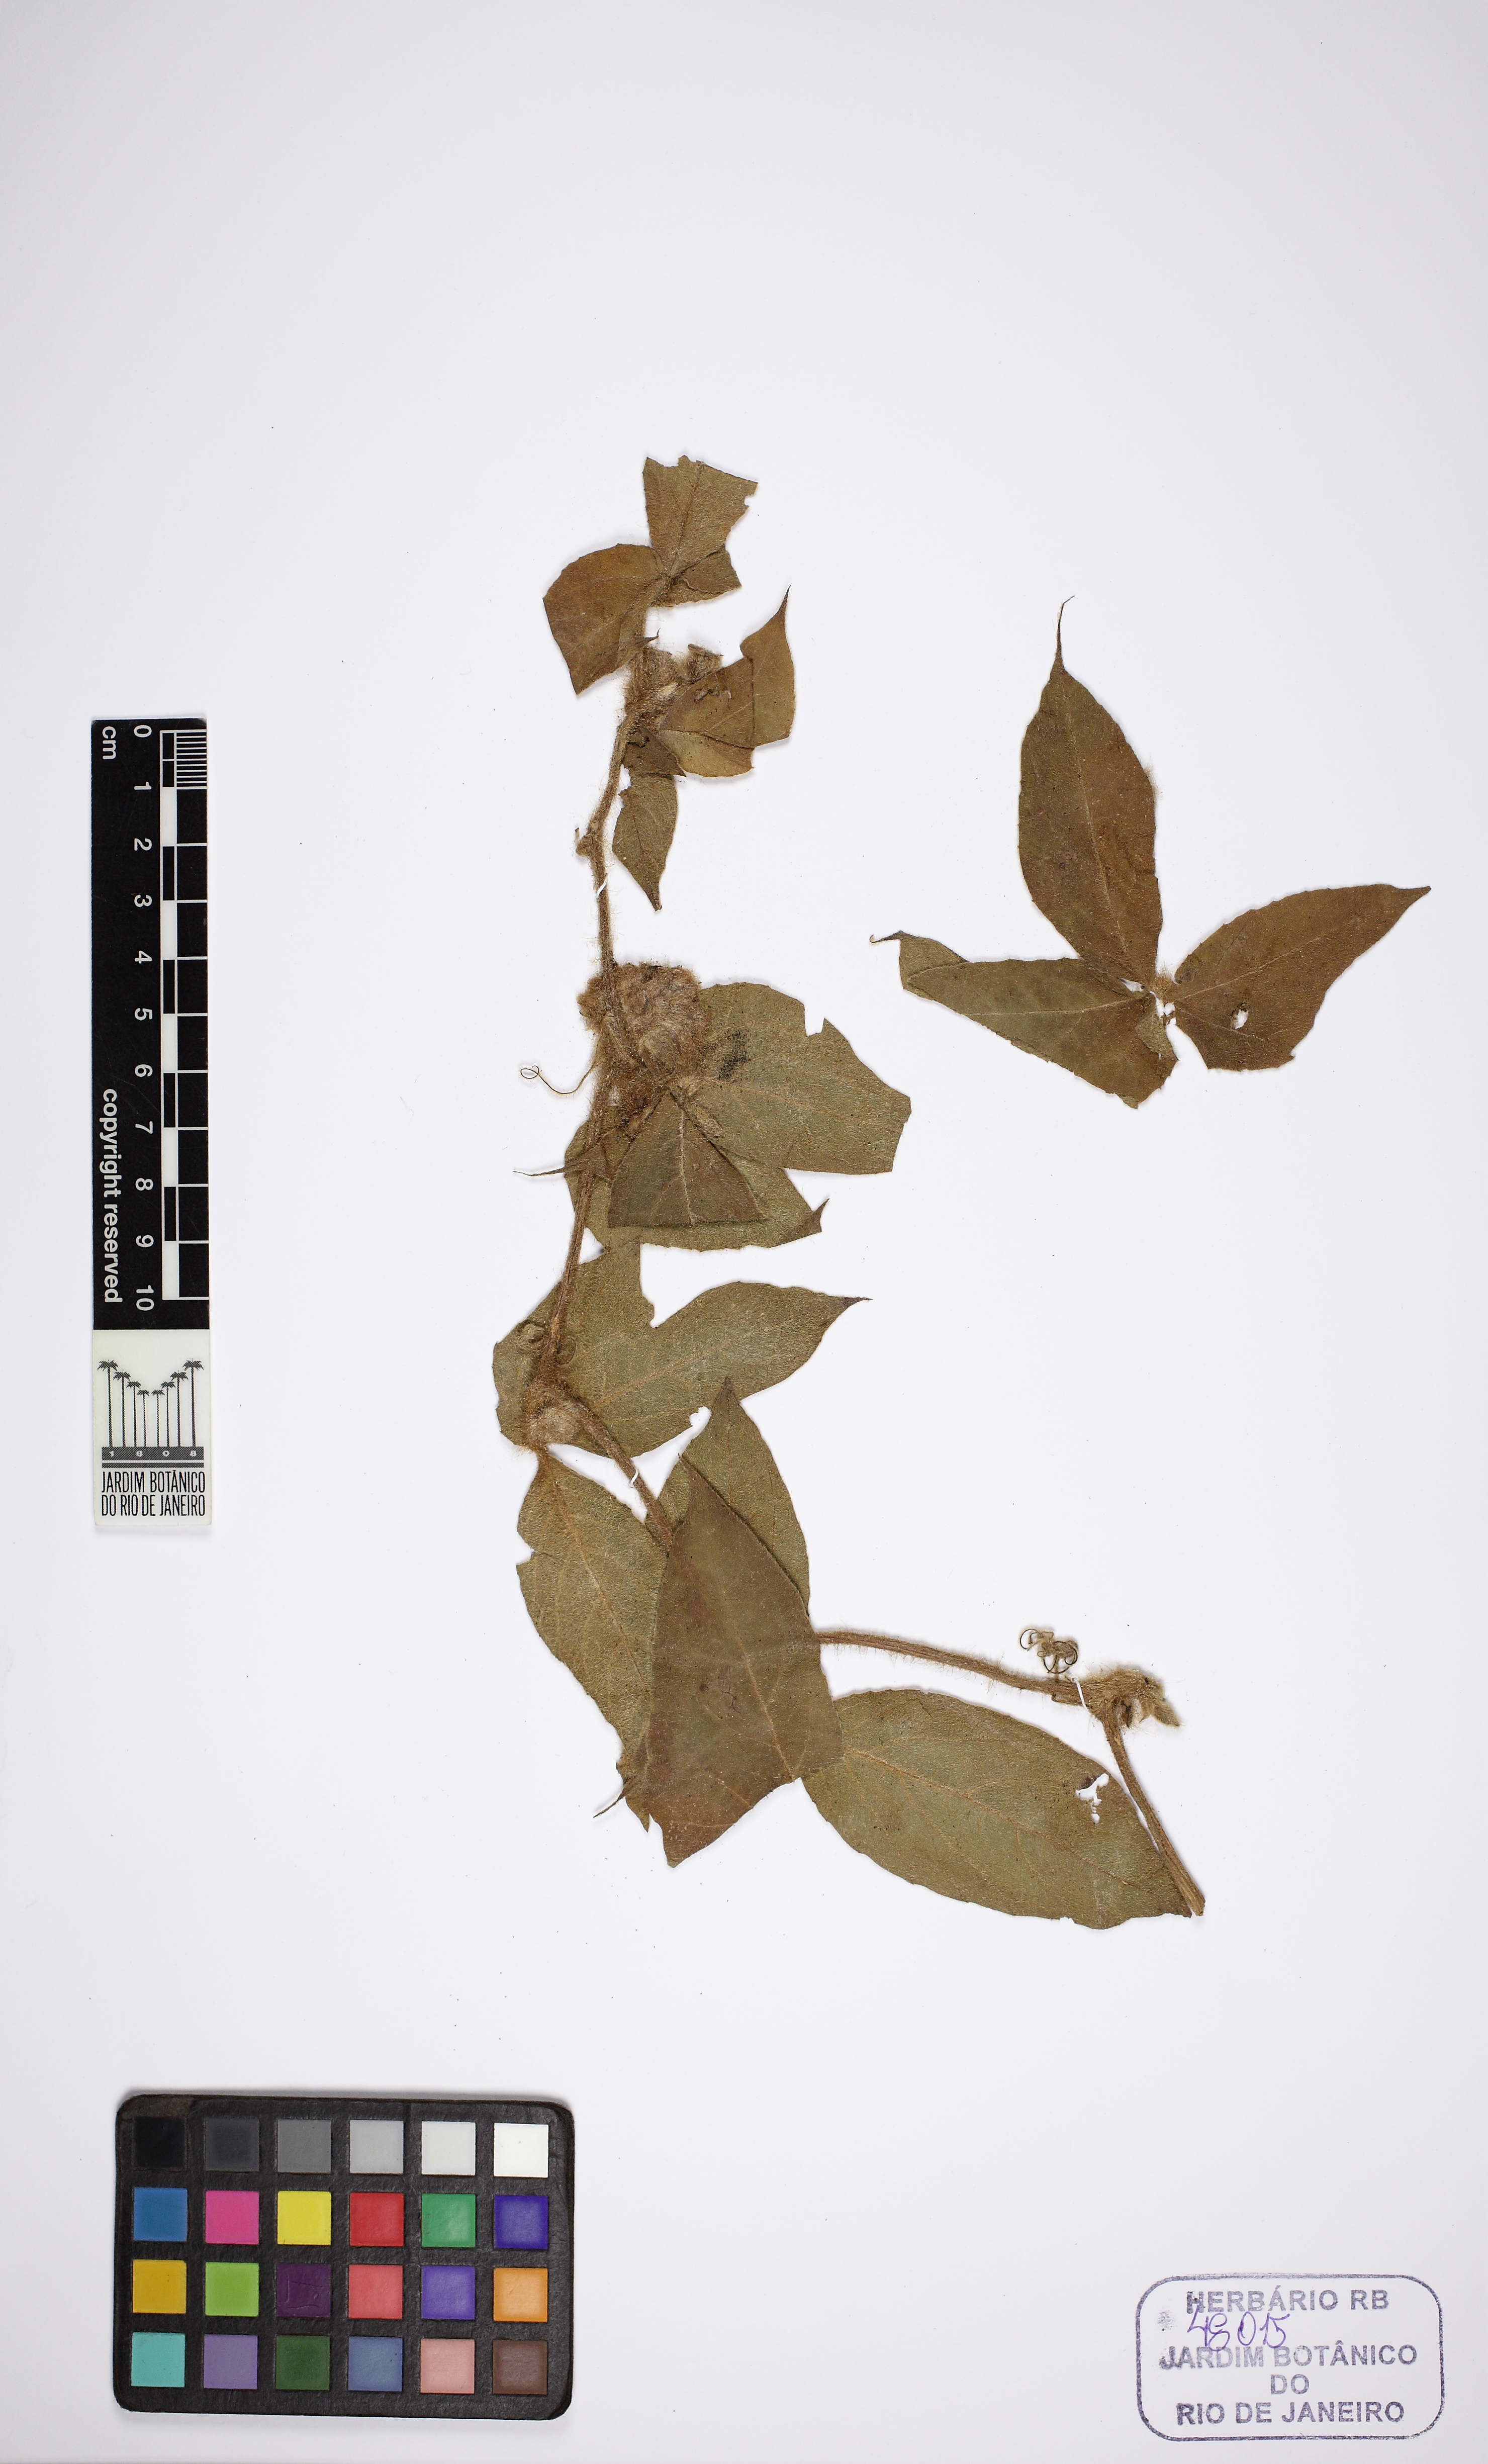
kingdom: Plantae
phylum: Tracheophyta
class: Magnoliopsida
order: Cucurbitales
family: Cucurbitaceae
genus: Cayaponia
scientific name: Cayaponia
